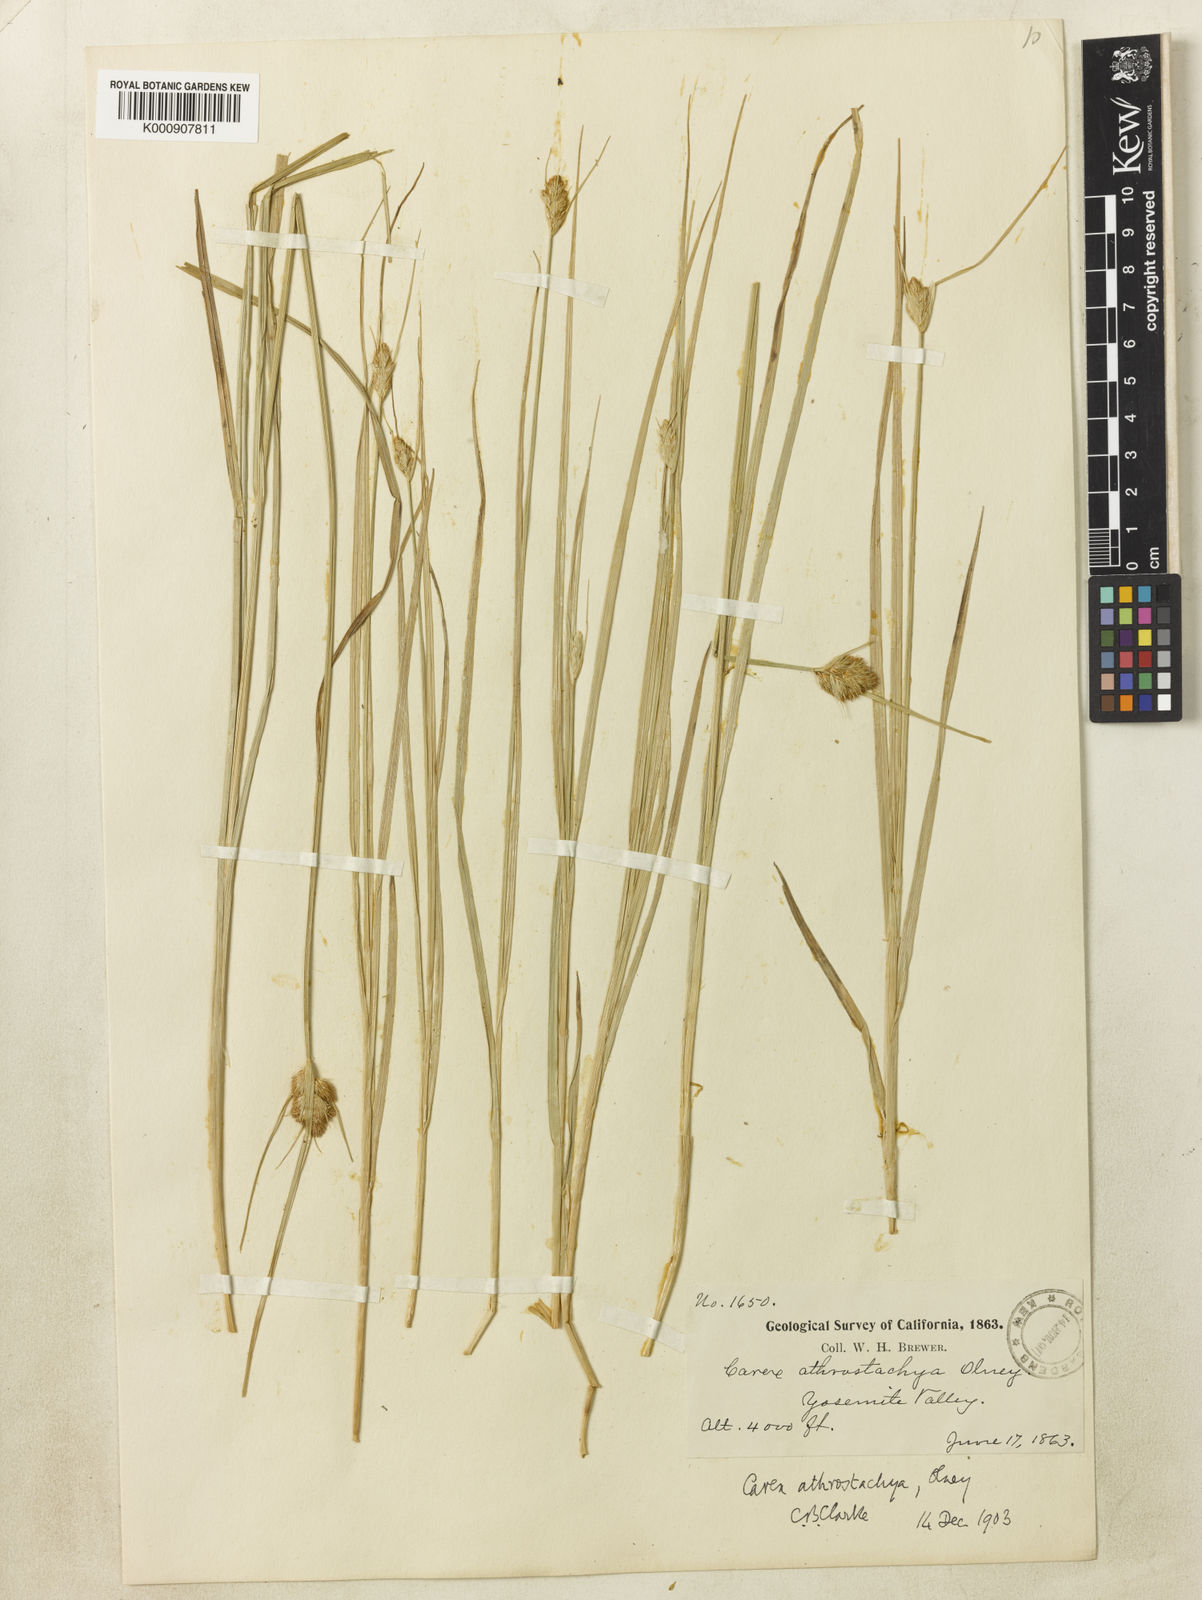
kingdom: Plantae
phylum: Tracheophyta
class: Liliopsida
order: Poales
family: Cyperaceae
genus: Carex
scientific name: Carex athrostachya
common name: Slenderbeak sedge
